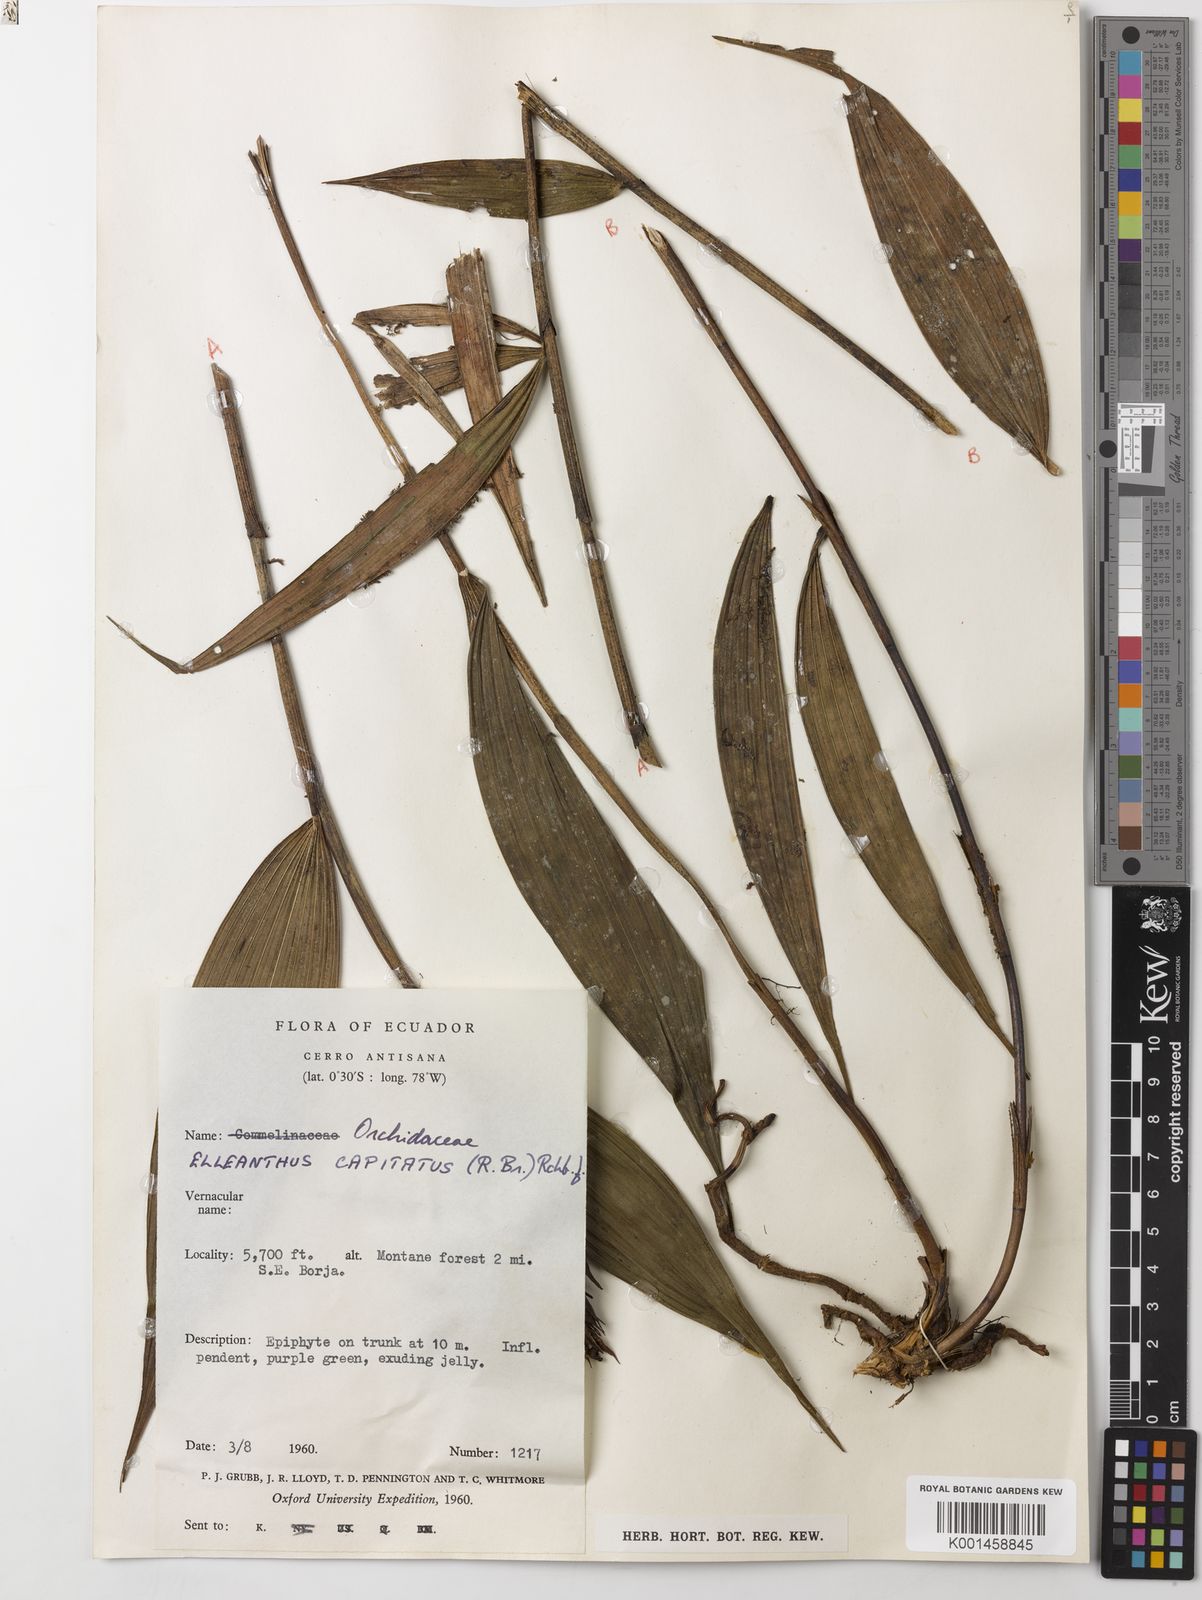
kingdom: Plantae
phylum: Tracheophyta
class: Liliopsida
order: Asparagales
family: Orchidaceae
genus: Elleanthus
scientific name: Elleanthus capitatus
